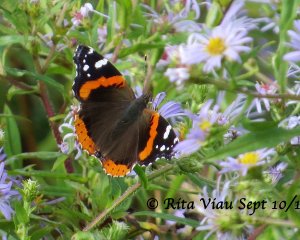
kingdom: Animalia
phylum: Arthropoda
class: Insecta
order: Lepidoptera
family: Nymphalidae
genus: Vanessa
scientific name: Vanessa atalanta
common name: Red Admiral
